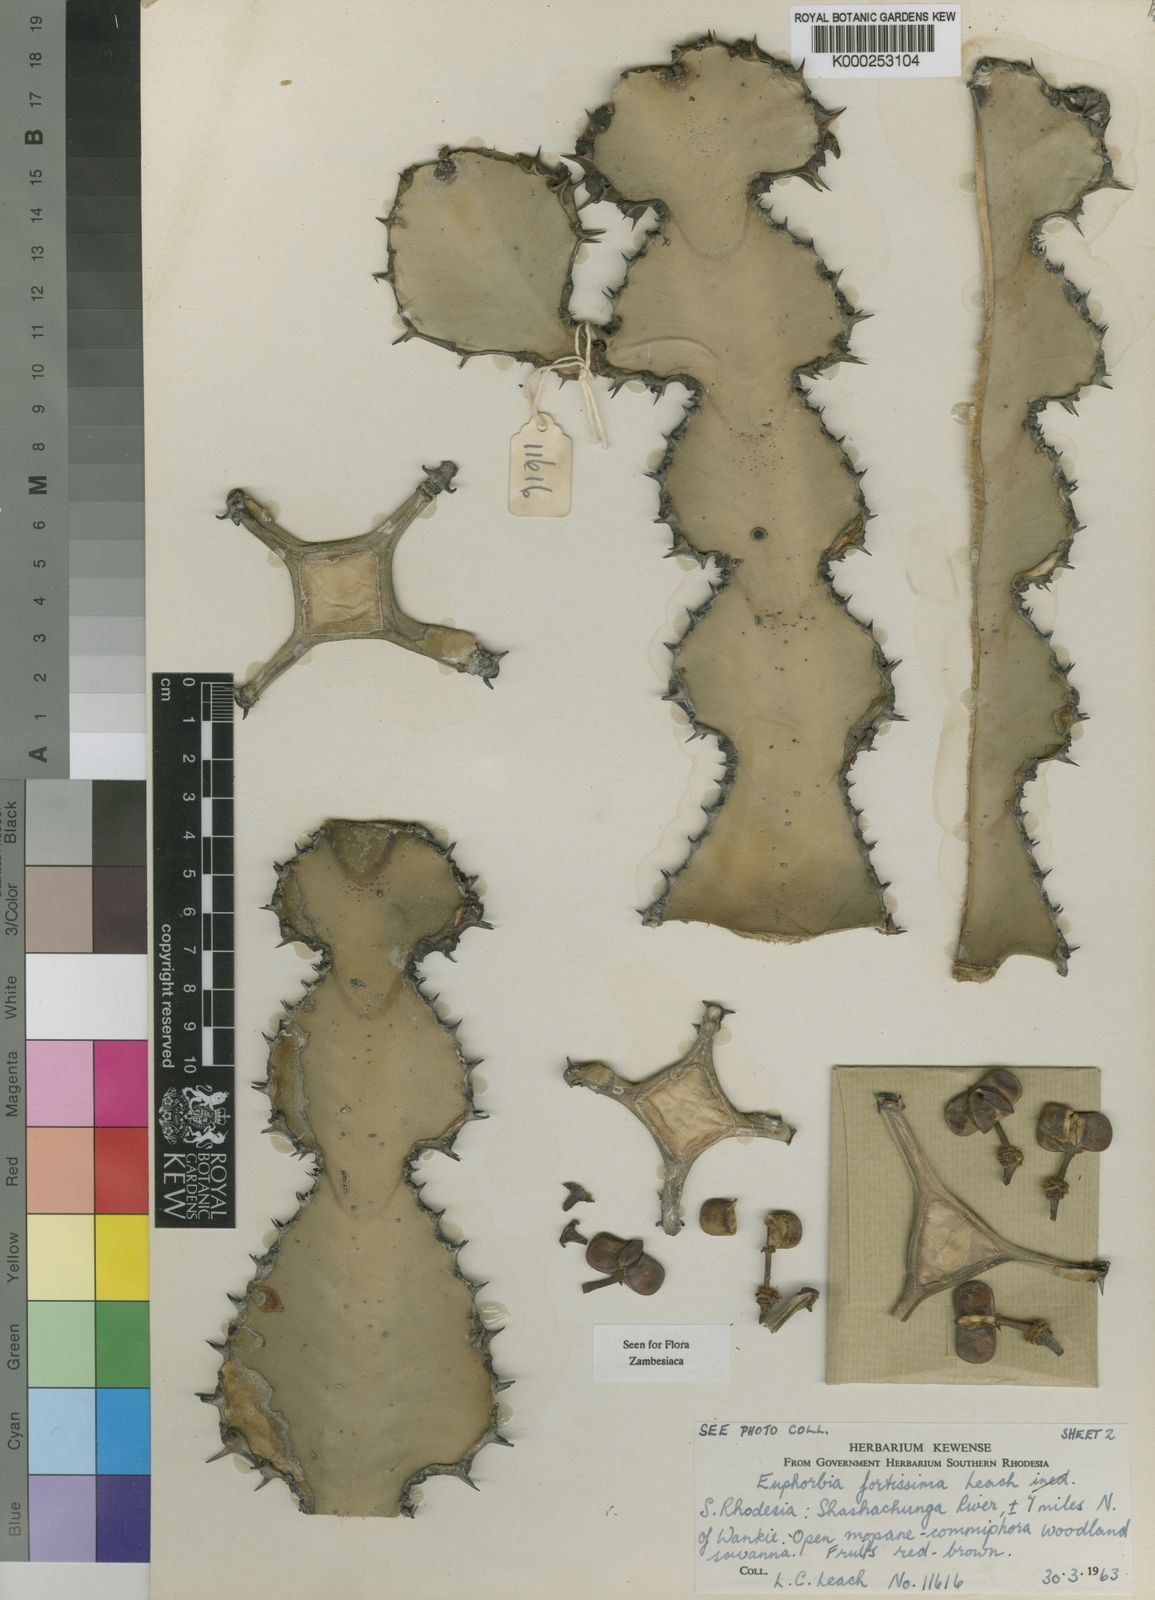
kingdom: Plantae
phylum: Tracheophyta
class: Magnoliopsida
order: Malpighiales
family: Euphorbiaceae
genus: Euphorbia
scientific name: Euphorbia fortissima
